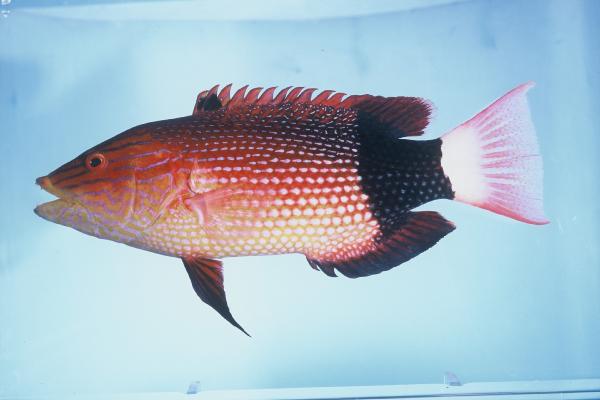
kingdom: Animalia
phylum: Chordata
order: Perciformes
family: Labridae
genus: Bodianus
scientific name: Bodianus macrourus
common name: Black-banded hogfish
